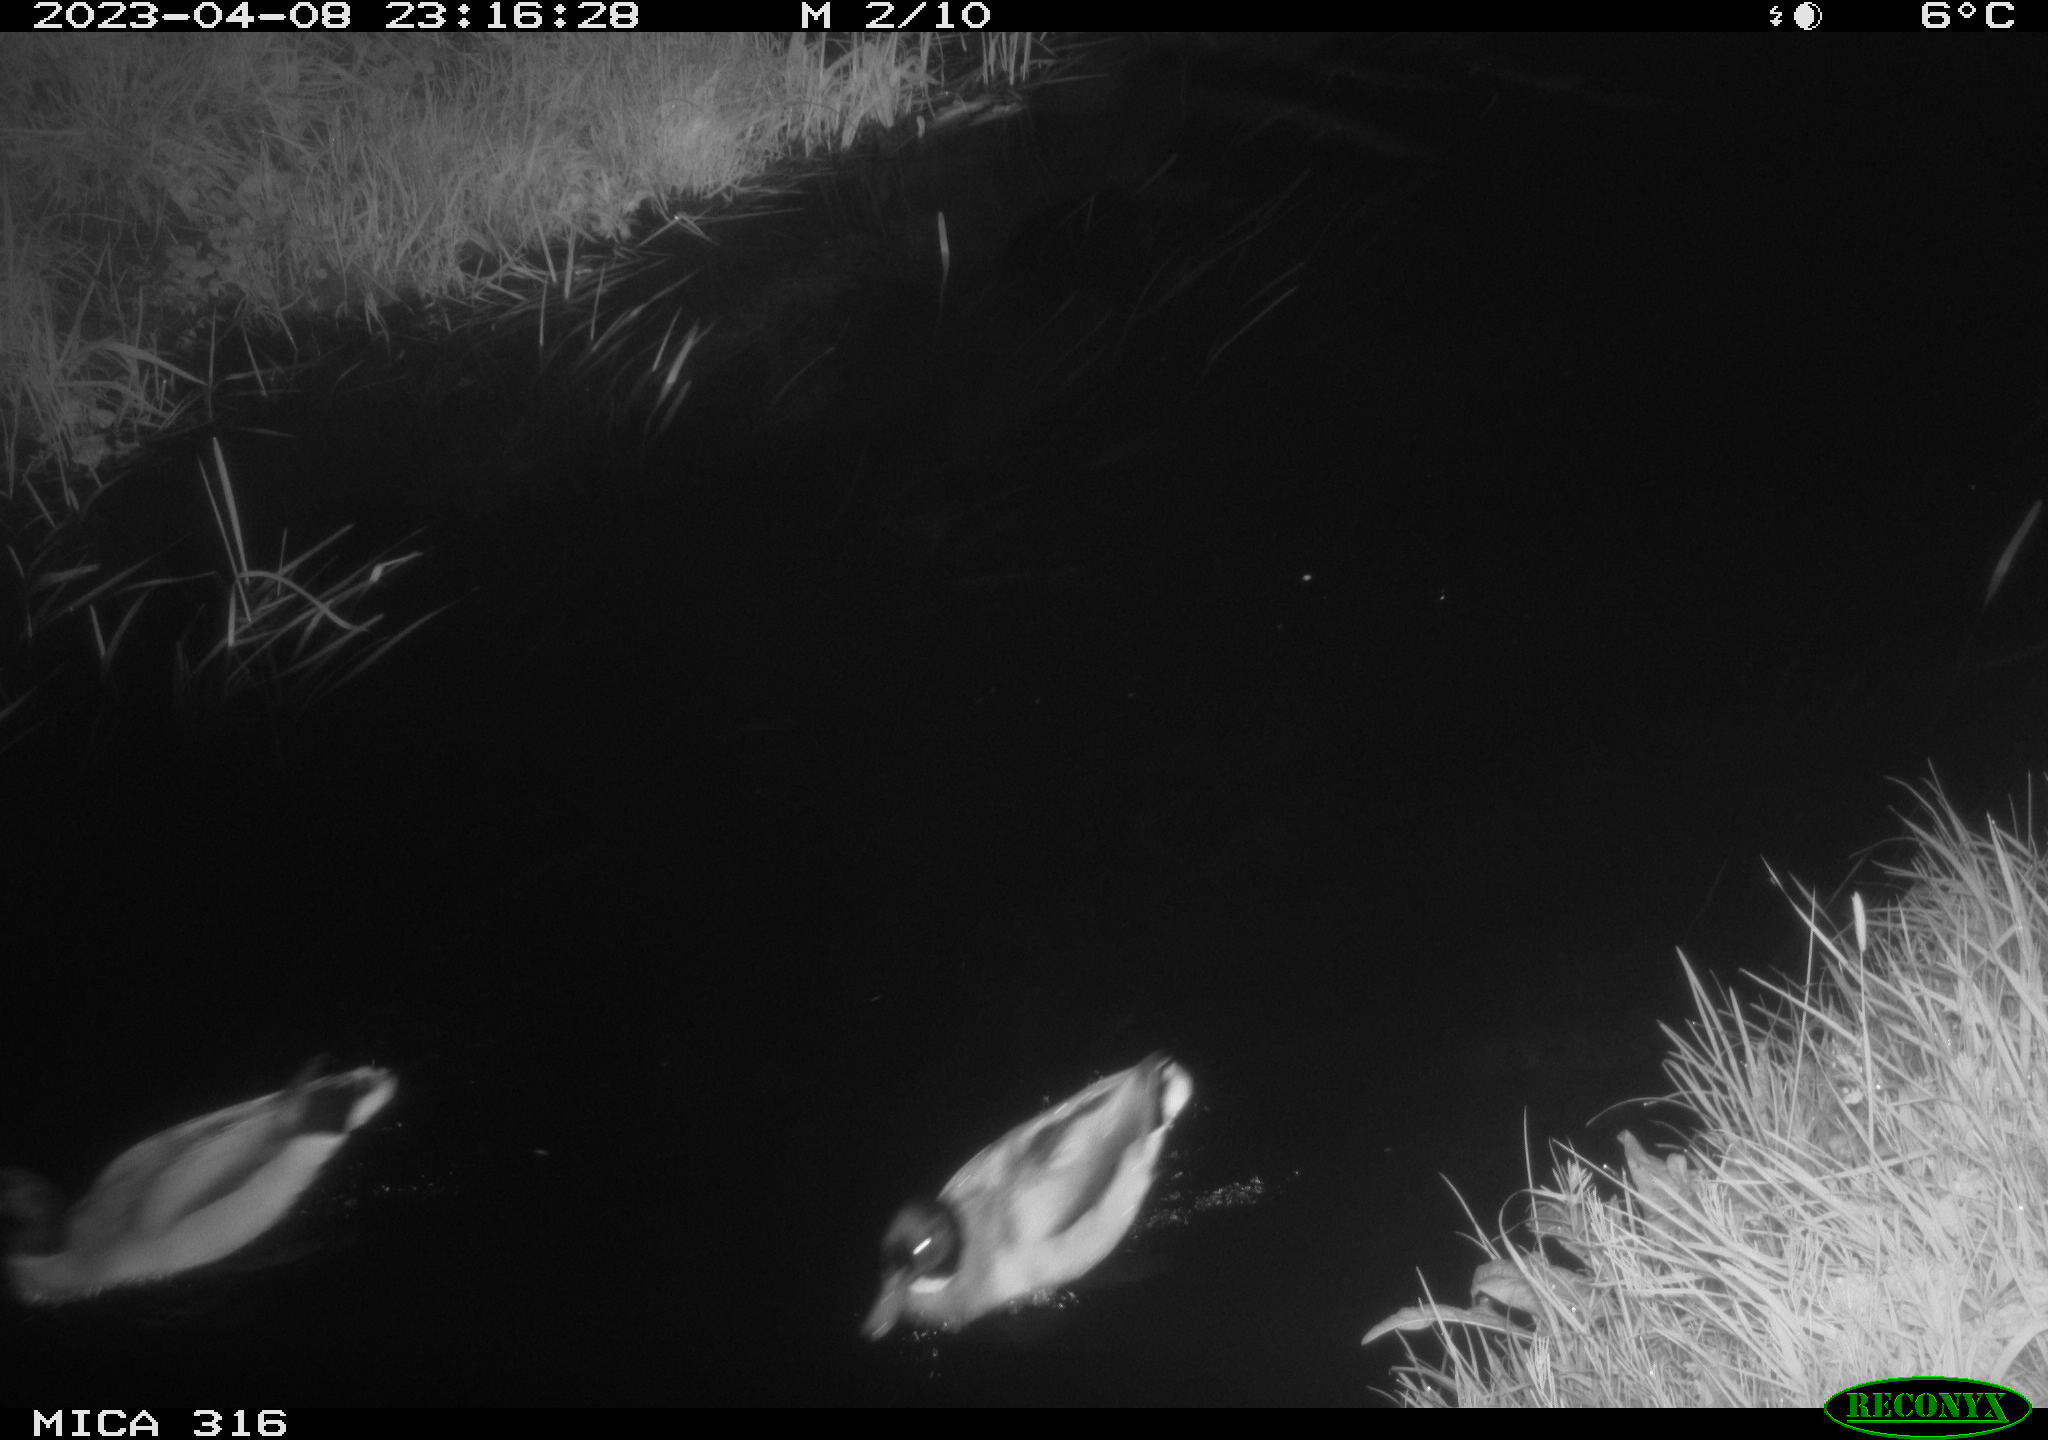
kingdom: Animalia
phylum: Chordata
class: Aves
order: Anseriformes
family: Anatidae
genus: Anas
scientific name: Anas
